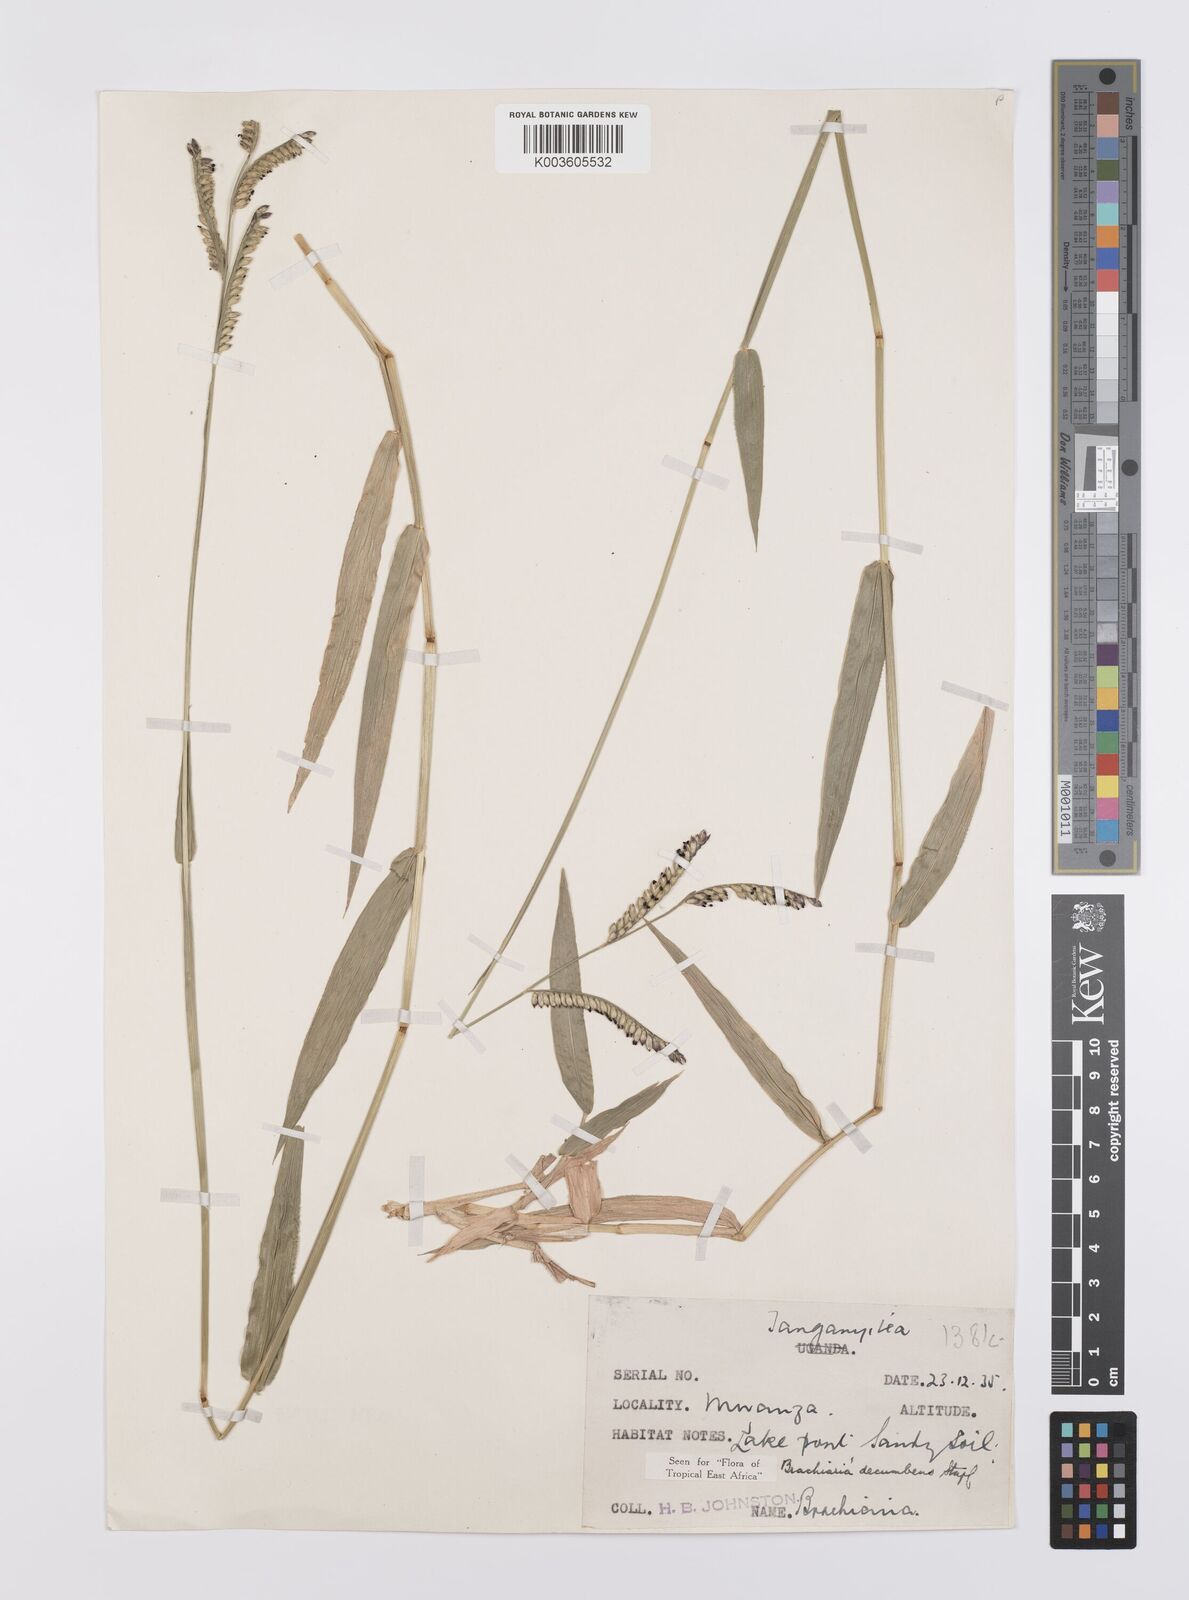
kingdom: Plantae
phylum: Tracheophyta
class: Liliopsida
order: Poales
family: Poaceae
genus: Urochloa
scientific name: Urochloa eminii
